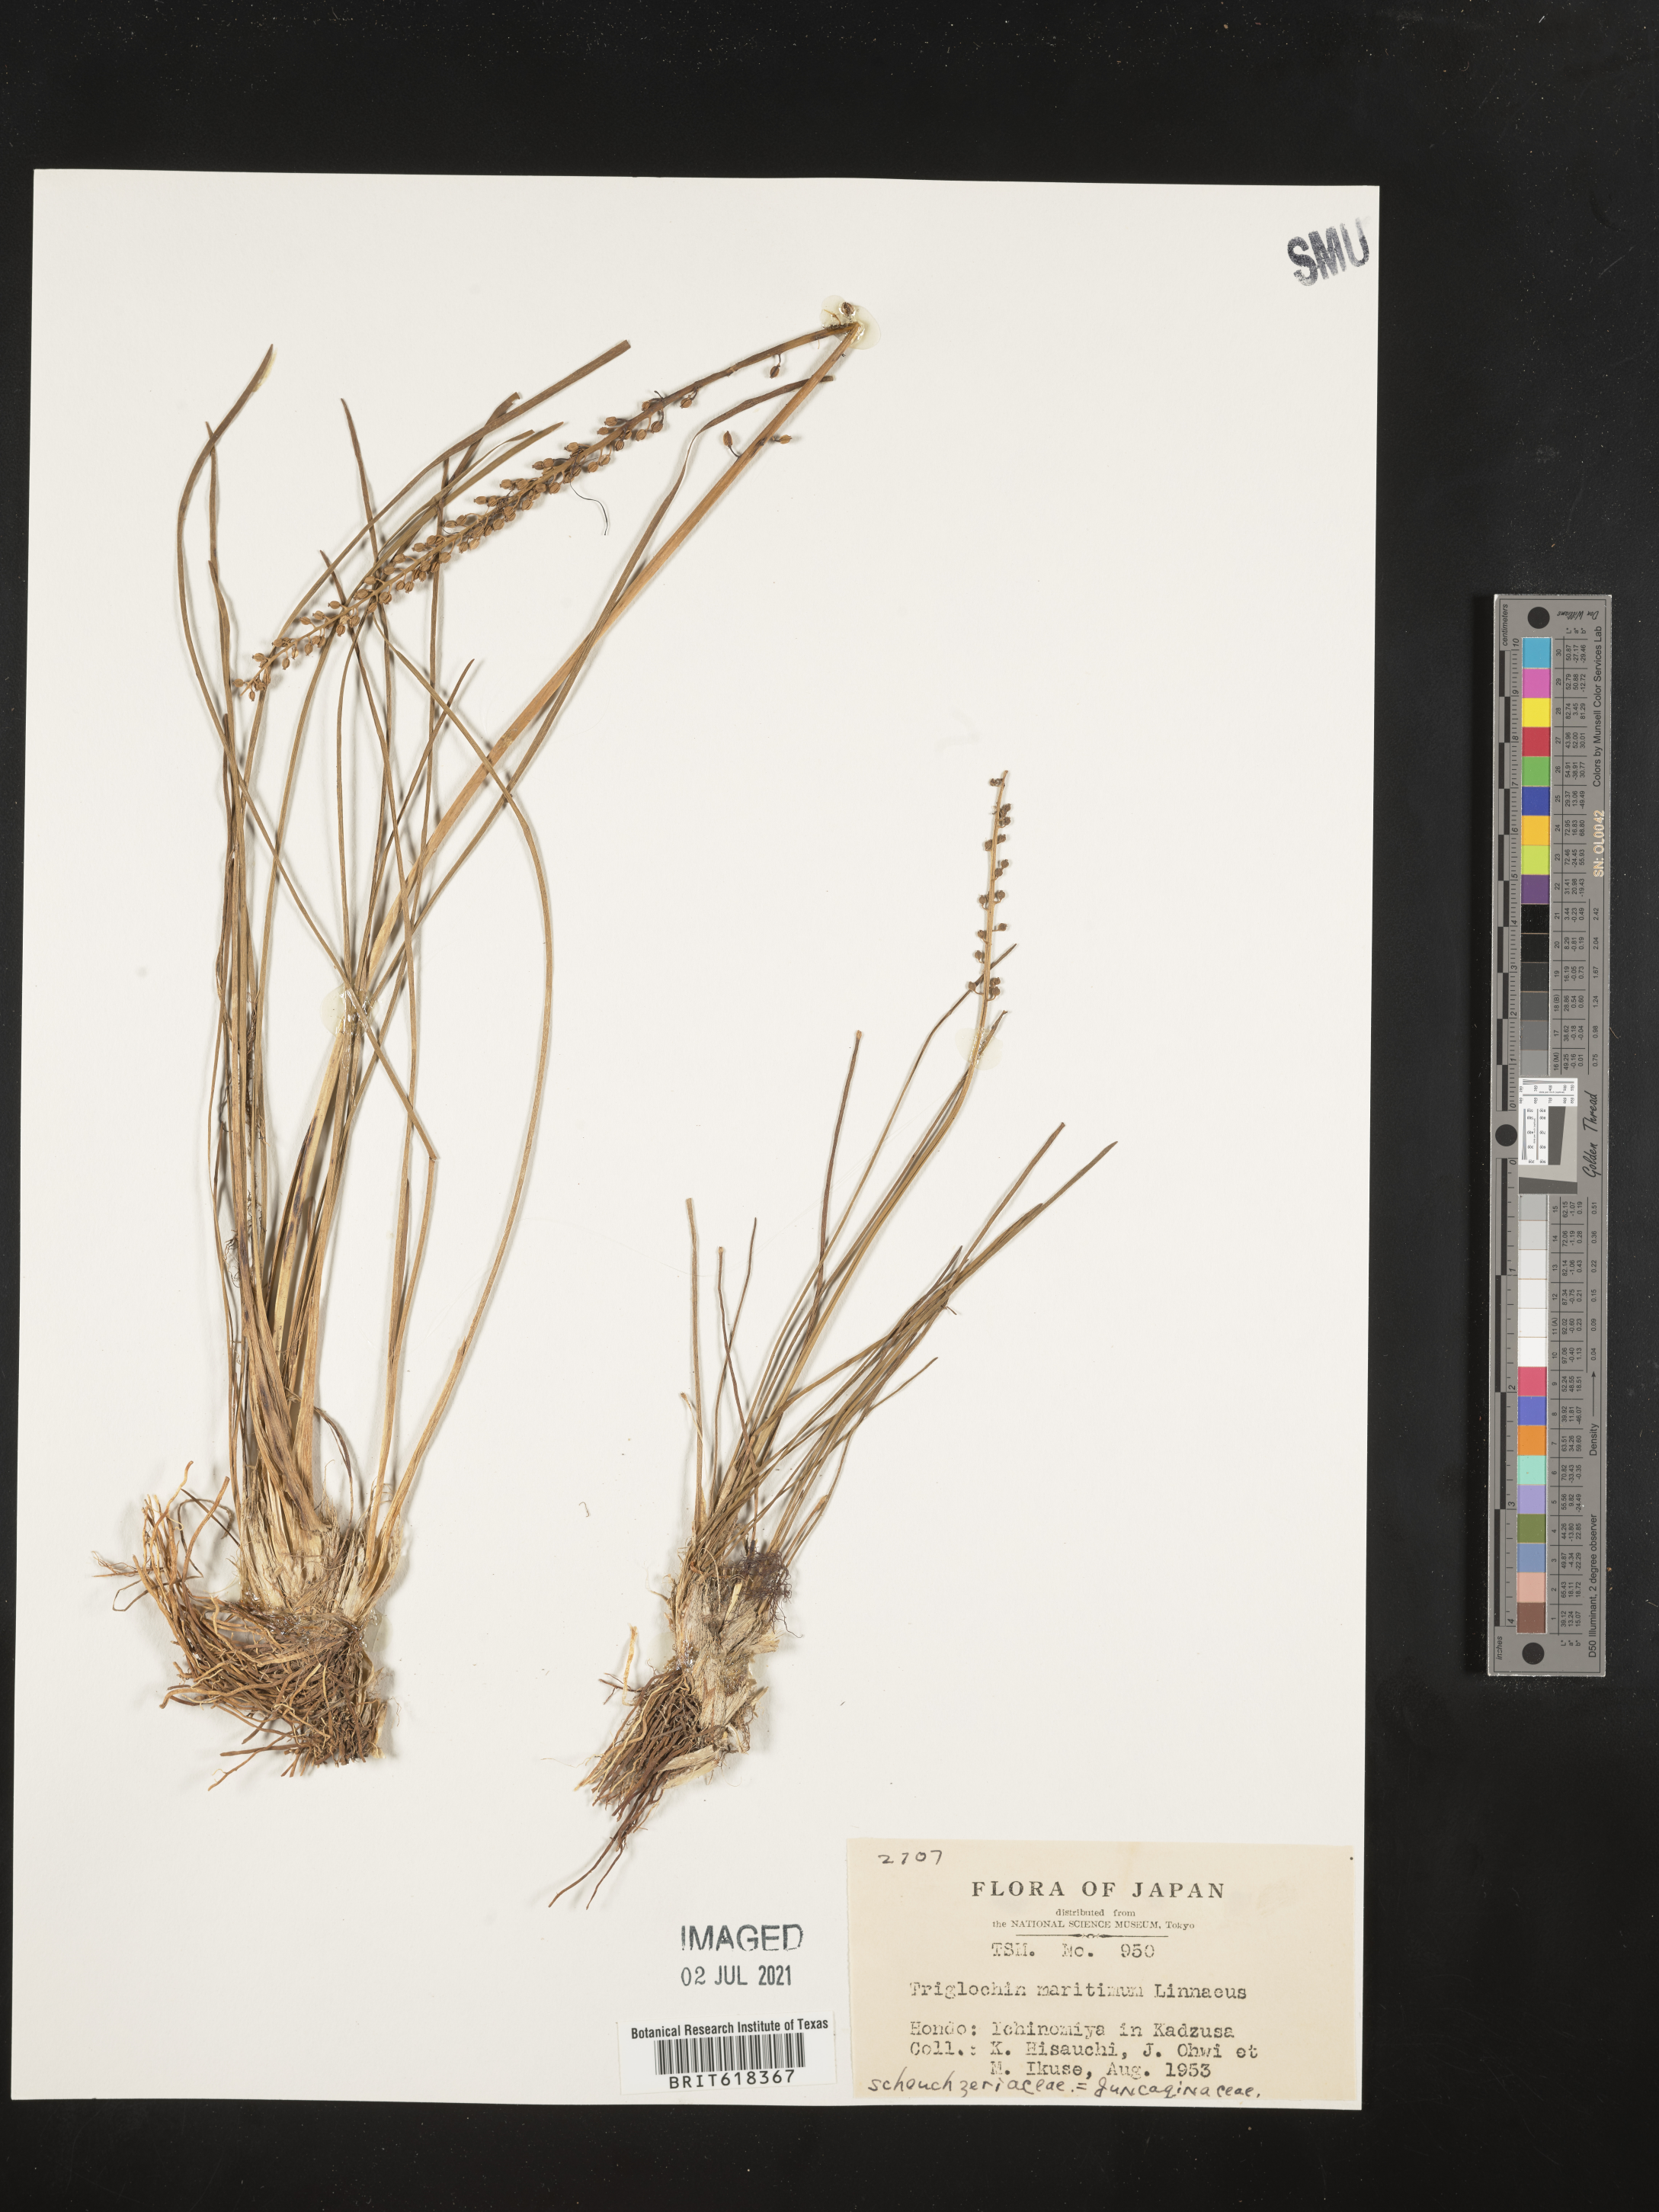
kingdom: Plantae
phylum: Tracheophyta
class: Liliopsida
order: Alismatales
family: Juncaginaceae
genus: Triglochin
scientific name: Triglochin maritima
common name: Sea arrowgrass
